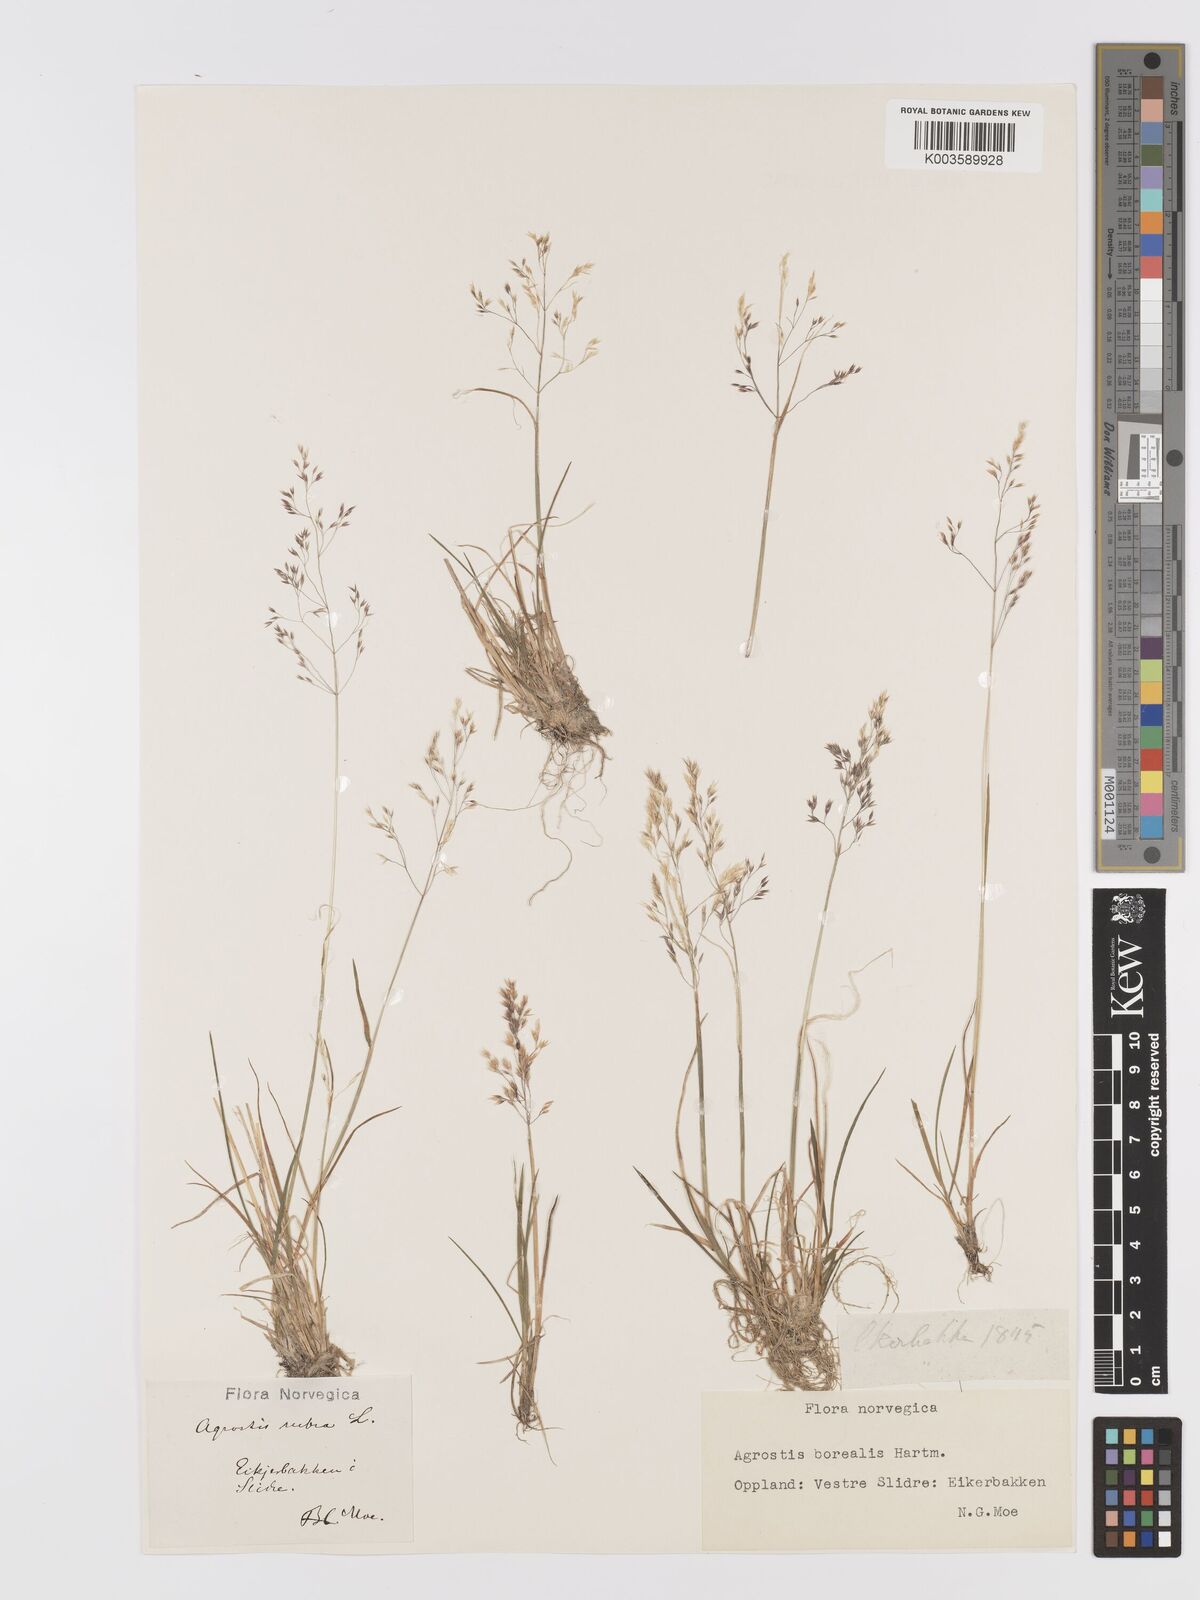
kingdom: Plantae
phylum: Tracheophyta
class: Liliopsida
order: Poales
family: Poaceae
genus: Agrostis
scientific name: Agrostis mertensii
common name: Northern bent
